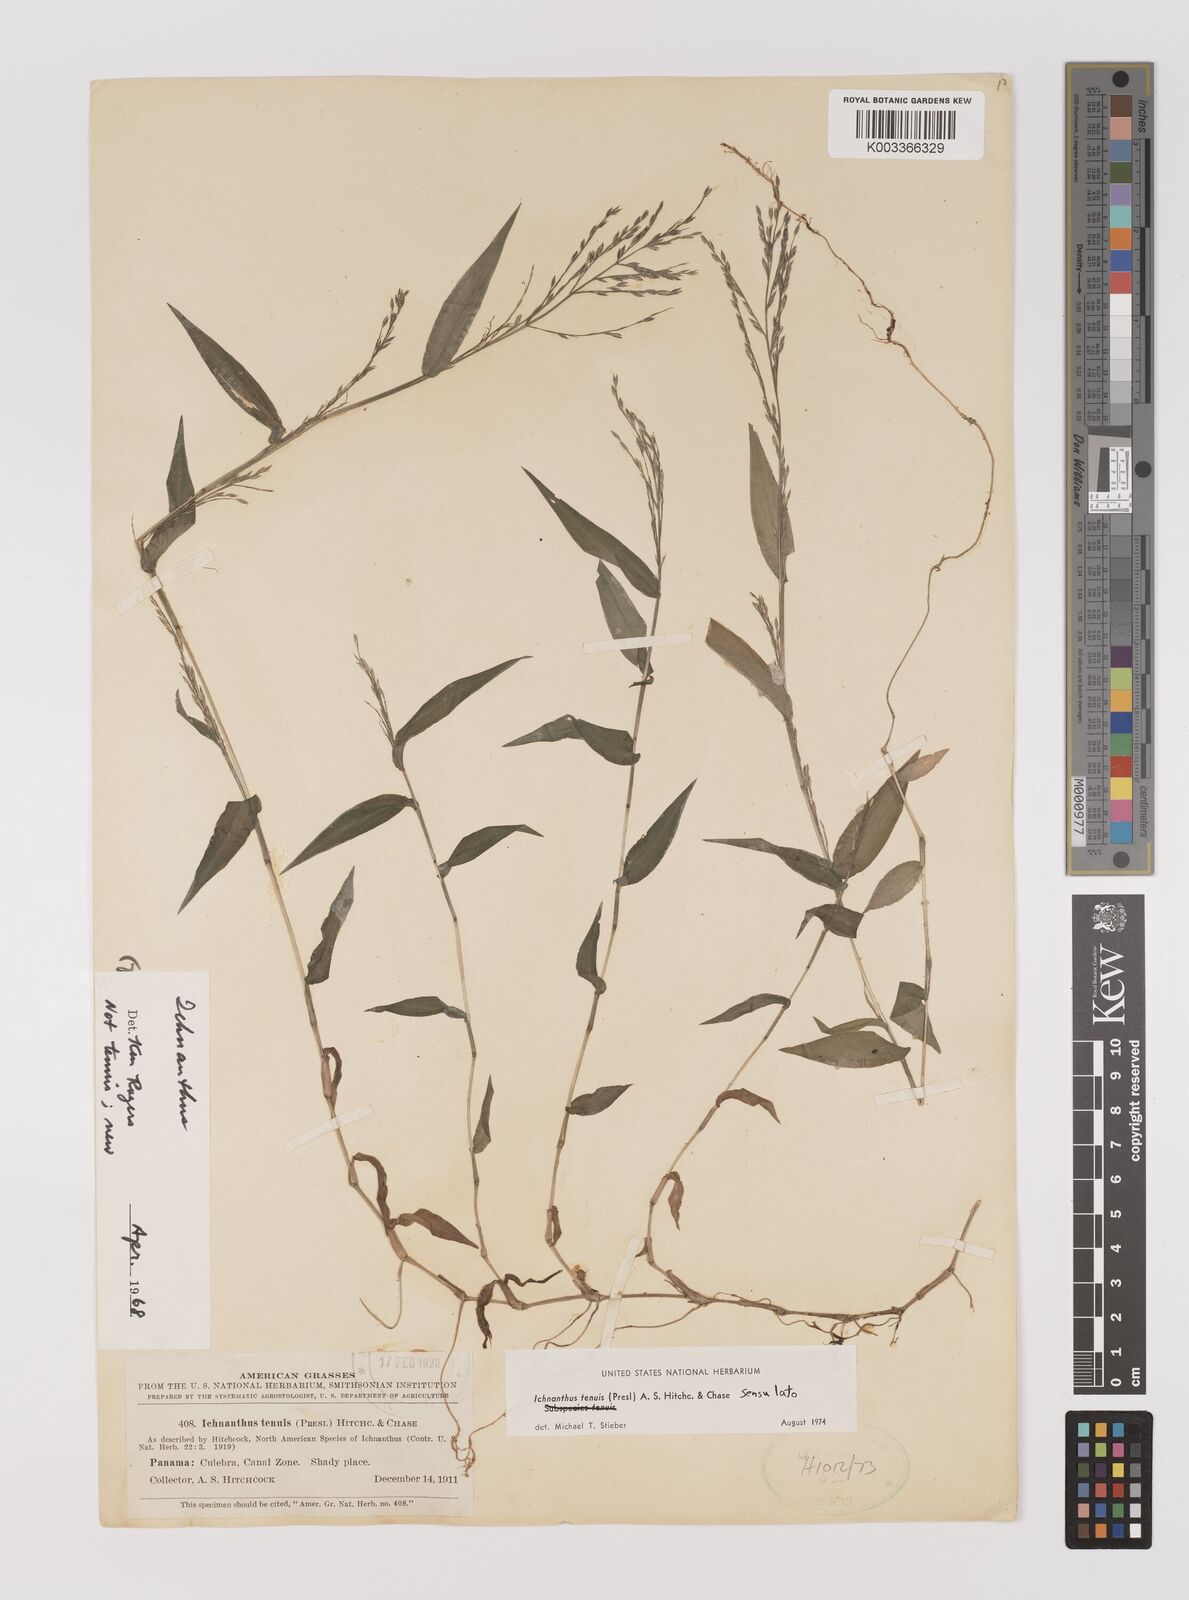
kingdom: Plantae
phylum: Tracheophyta
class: Liliopsida
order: Poales
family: Poaceae
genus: Ichnanthus
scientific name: Ichnanthus tenuis
